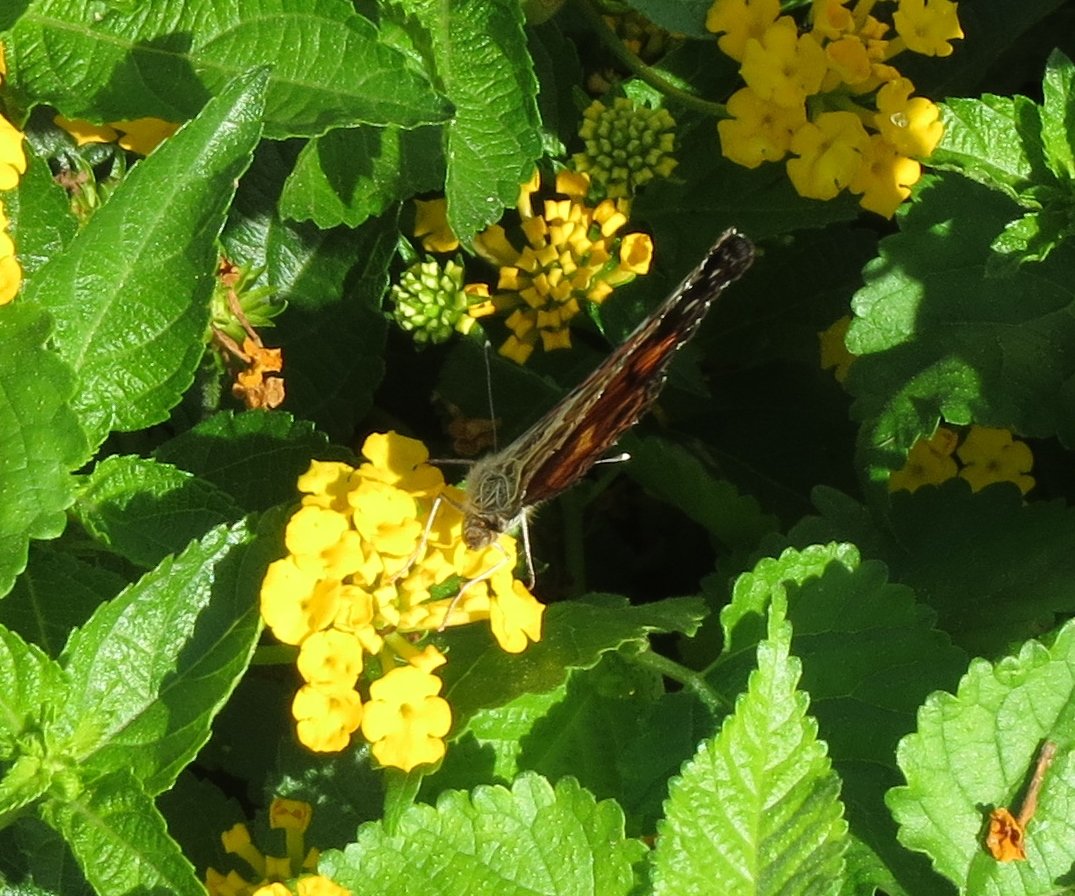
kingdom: Animalia
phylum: Arthropoda
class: Insecta
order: Lepidoptera
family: Nymphalidae
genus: Vanessa
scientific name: Vanessa virginiensis
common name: American Lady
